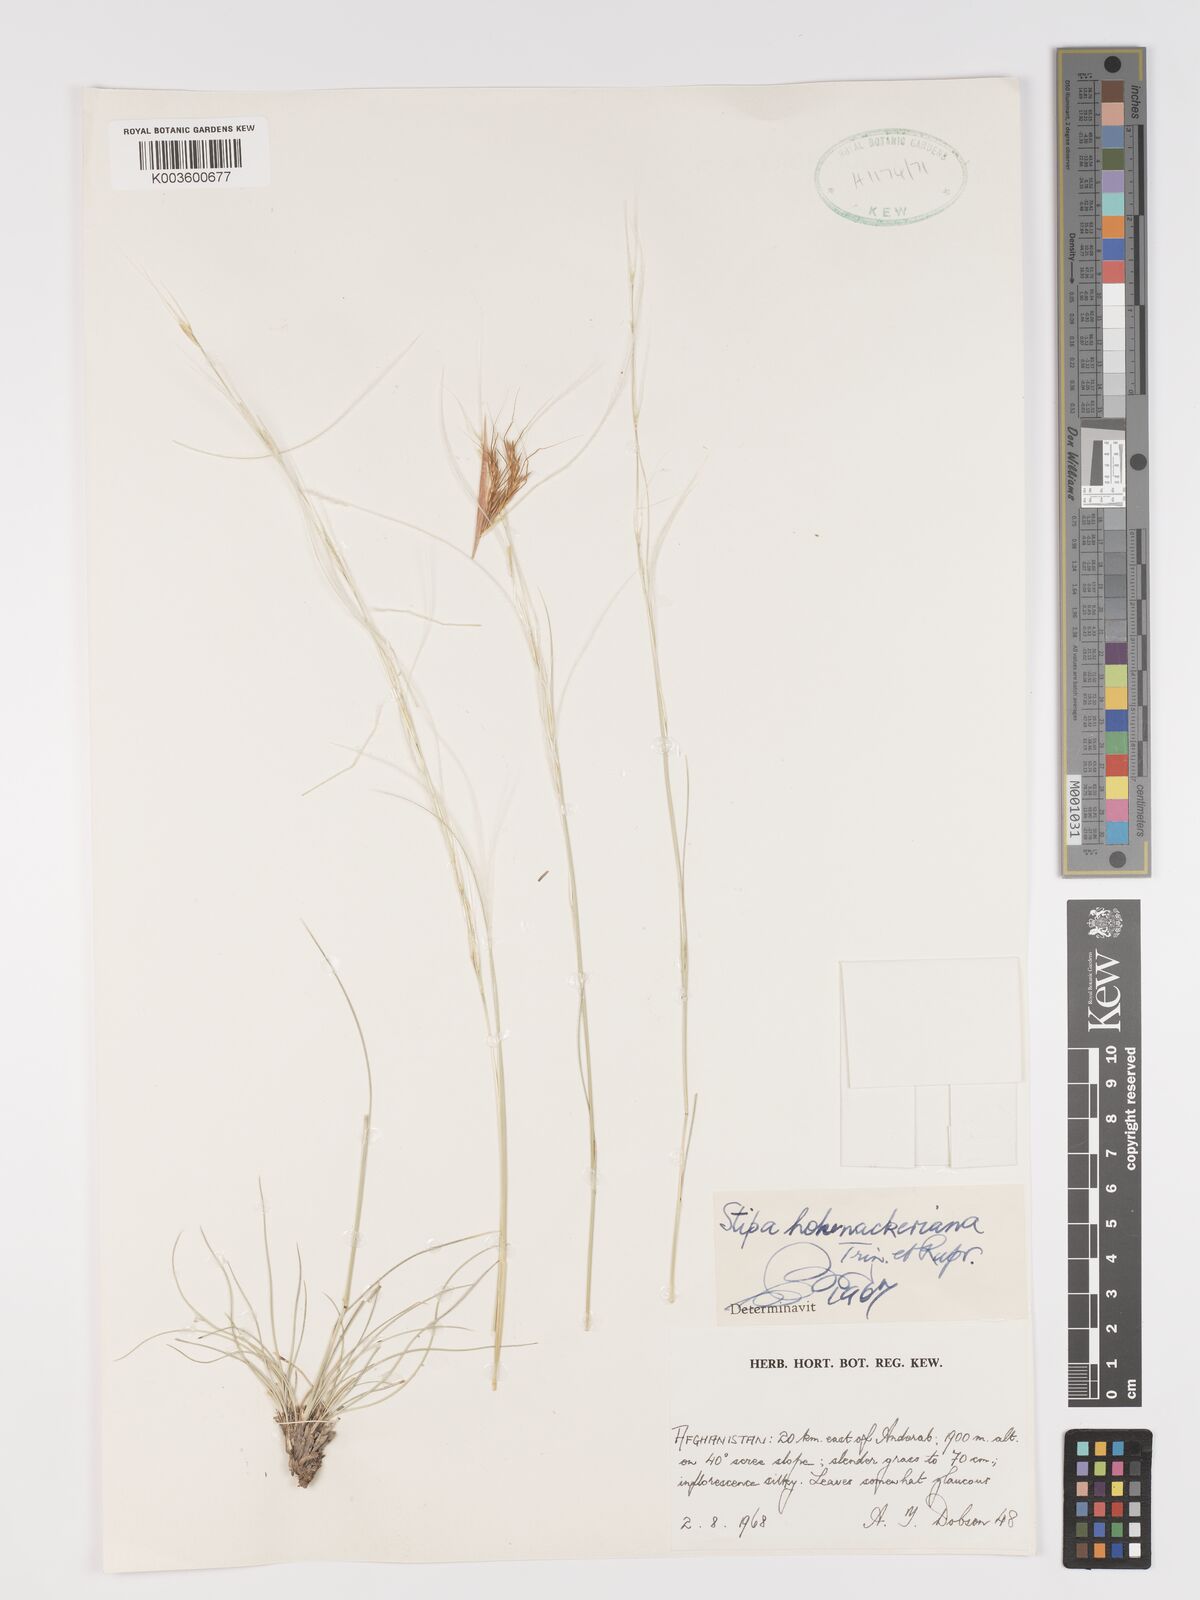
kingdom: Plantae
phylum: Tracheophyta
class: Liliopsida
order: Poales
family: Poaceae
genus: Stipa
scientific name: Stipa hohenackeriana
